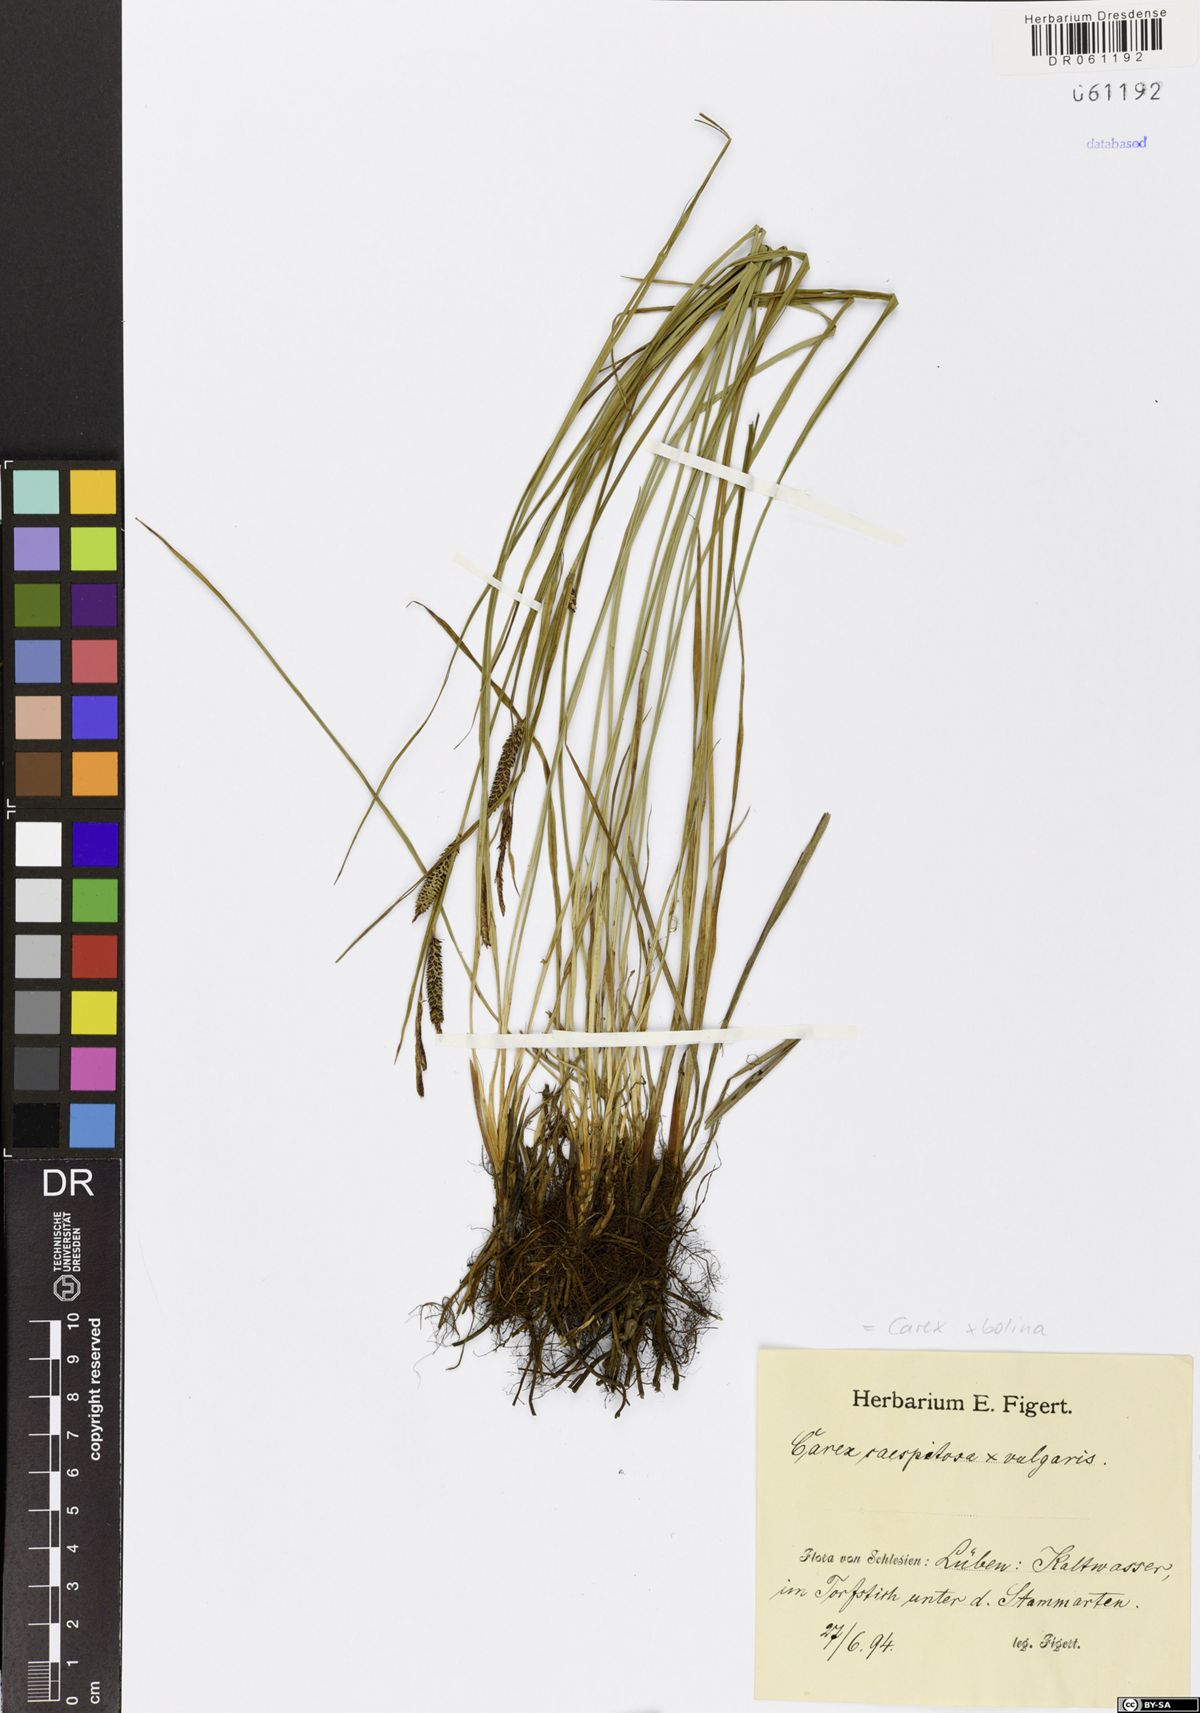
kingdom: Plantae
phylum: Tracheophyta
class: Liliopsida
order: Poales
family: Cyperaceae
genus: Carex
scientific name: Carex bolina
